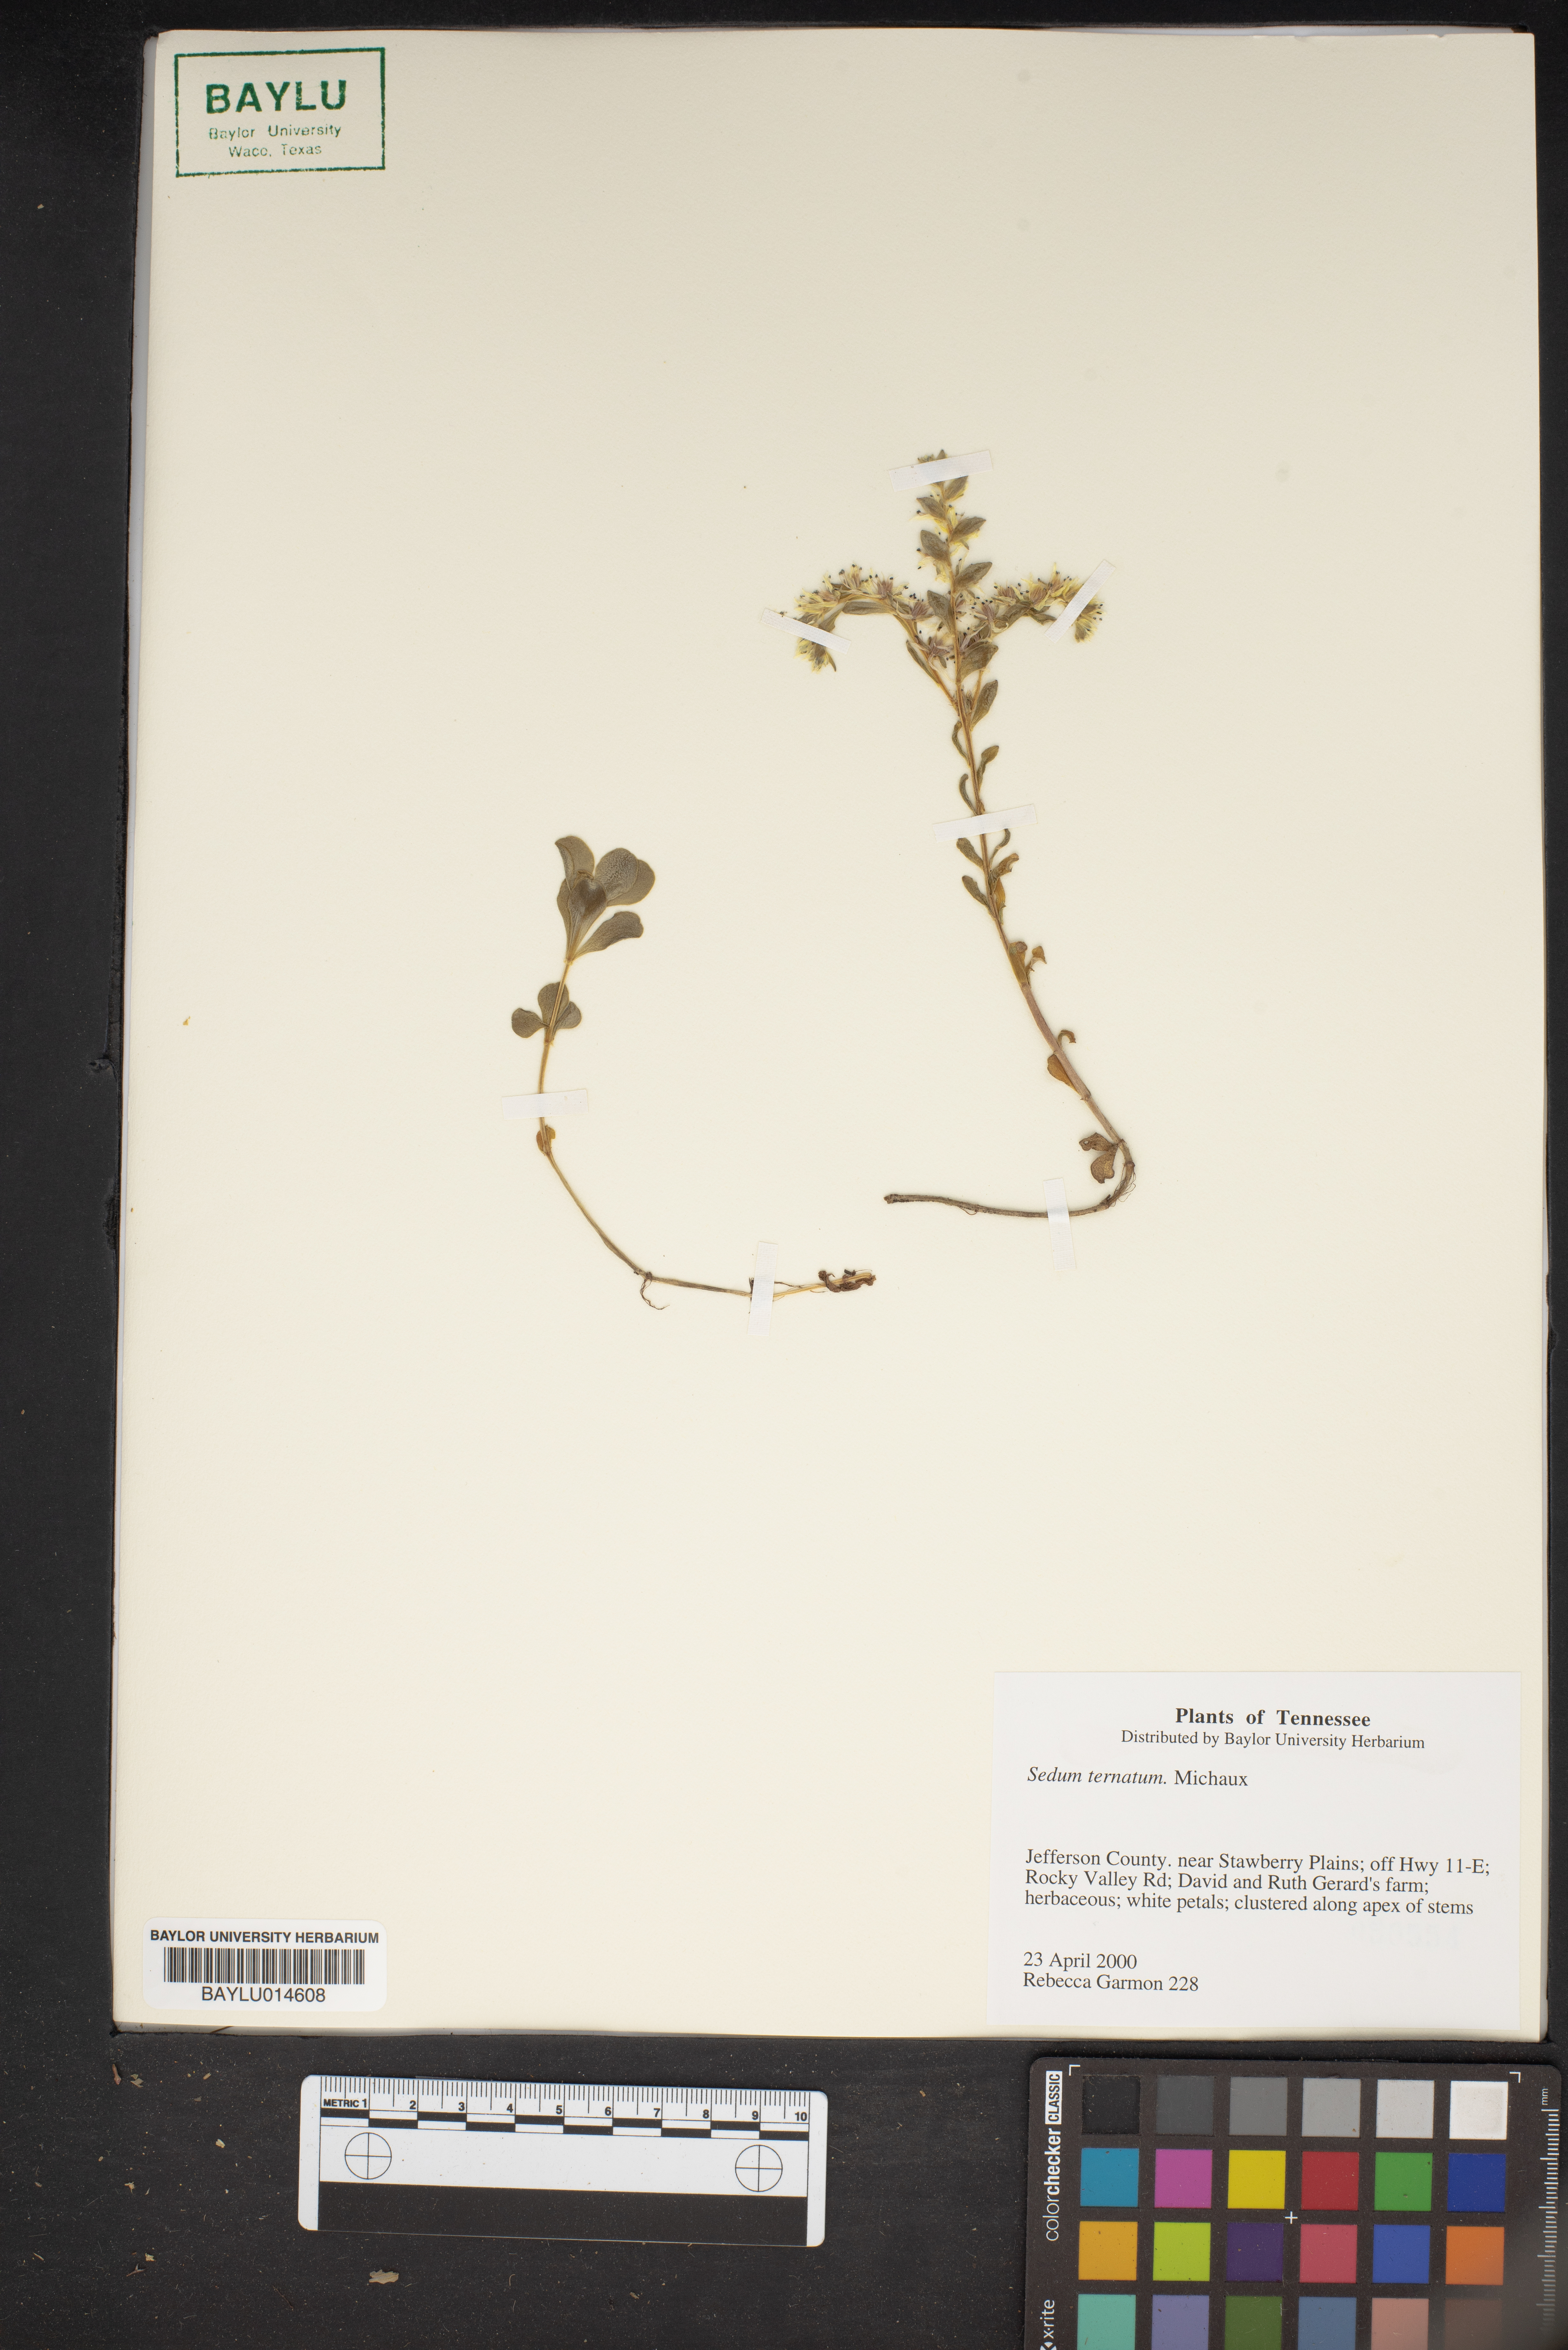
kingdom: Plantae
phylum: Tracheophyta
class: Magnoliopsida
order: Saxifragales
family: Crassulaceae
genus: Sedum
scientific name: Sedum ternatum
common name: Wild stonecrop
